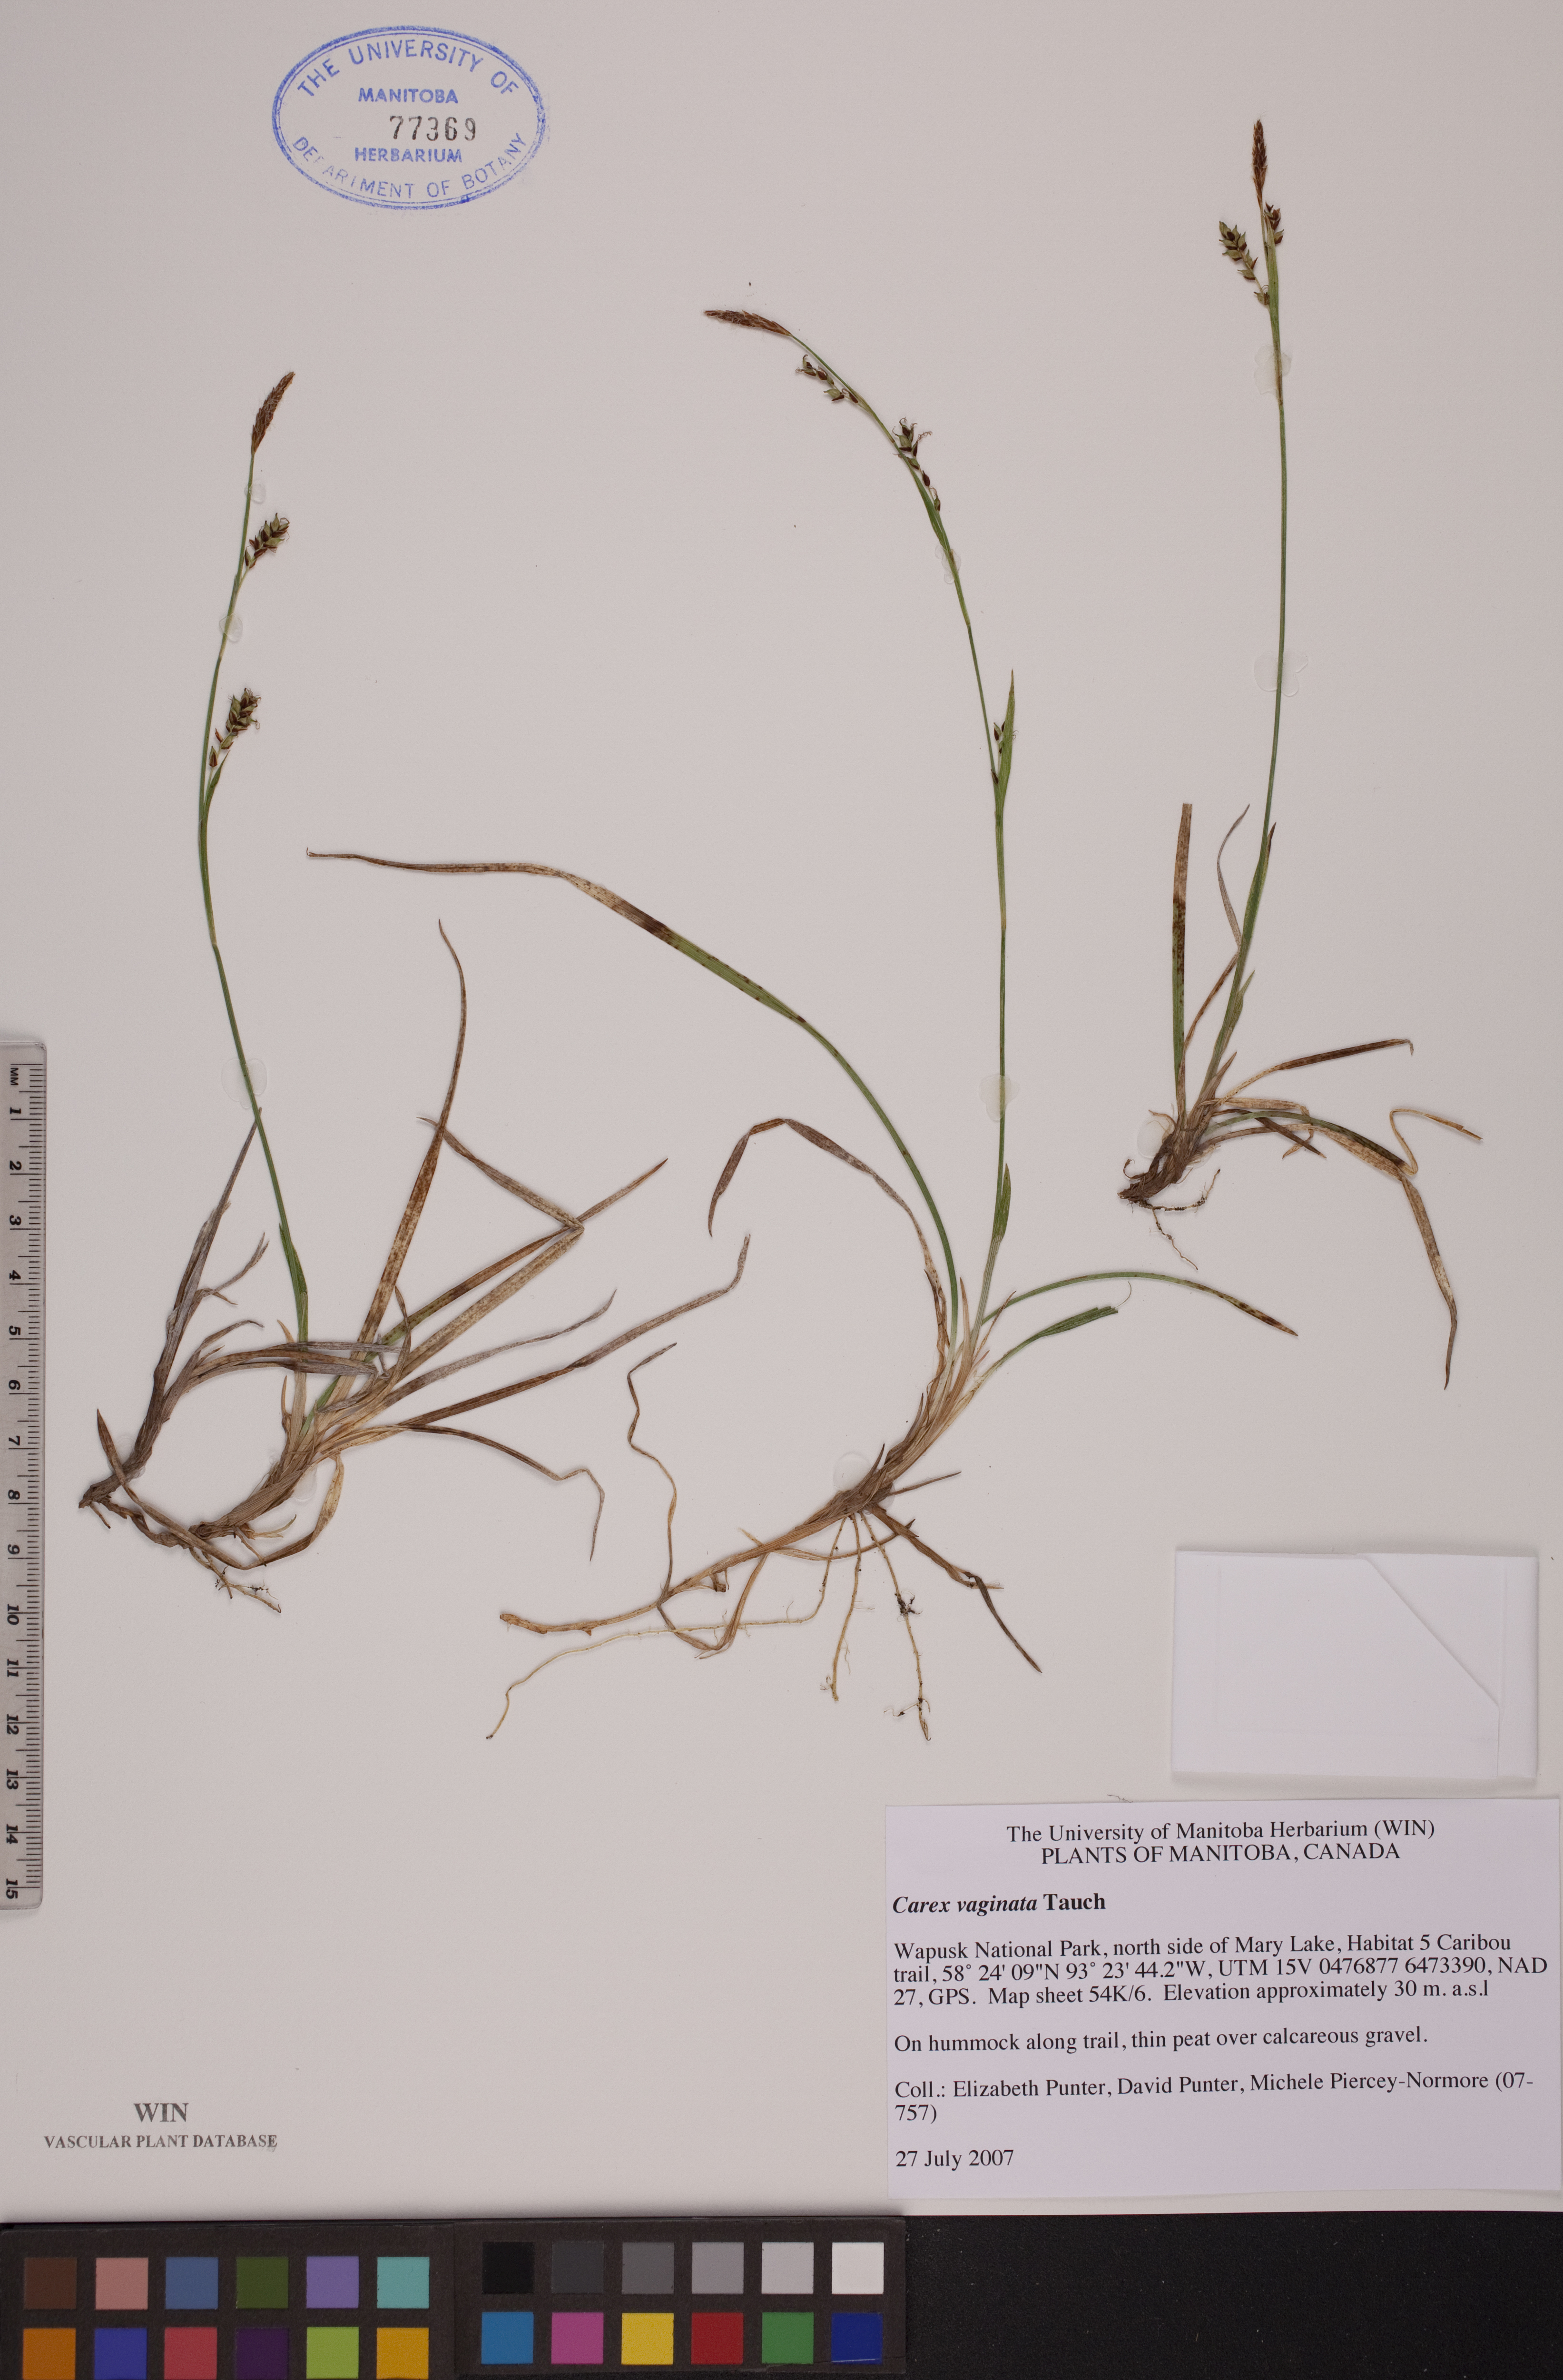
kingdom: Plantae
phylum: Tracheophyta
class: Liliopsida
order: Poales
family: Cyperaceae
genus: Carex
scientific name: Carex vaginata
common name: Sheathed sedge
